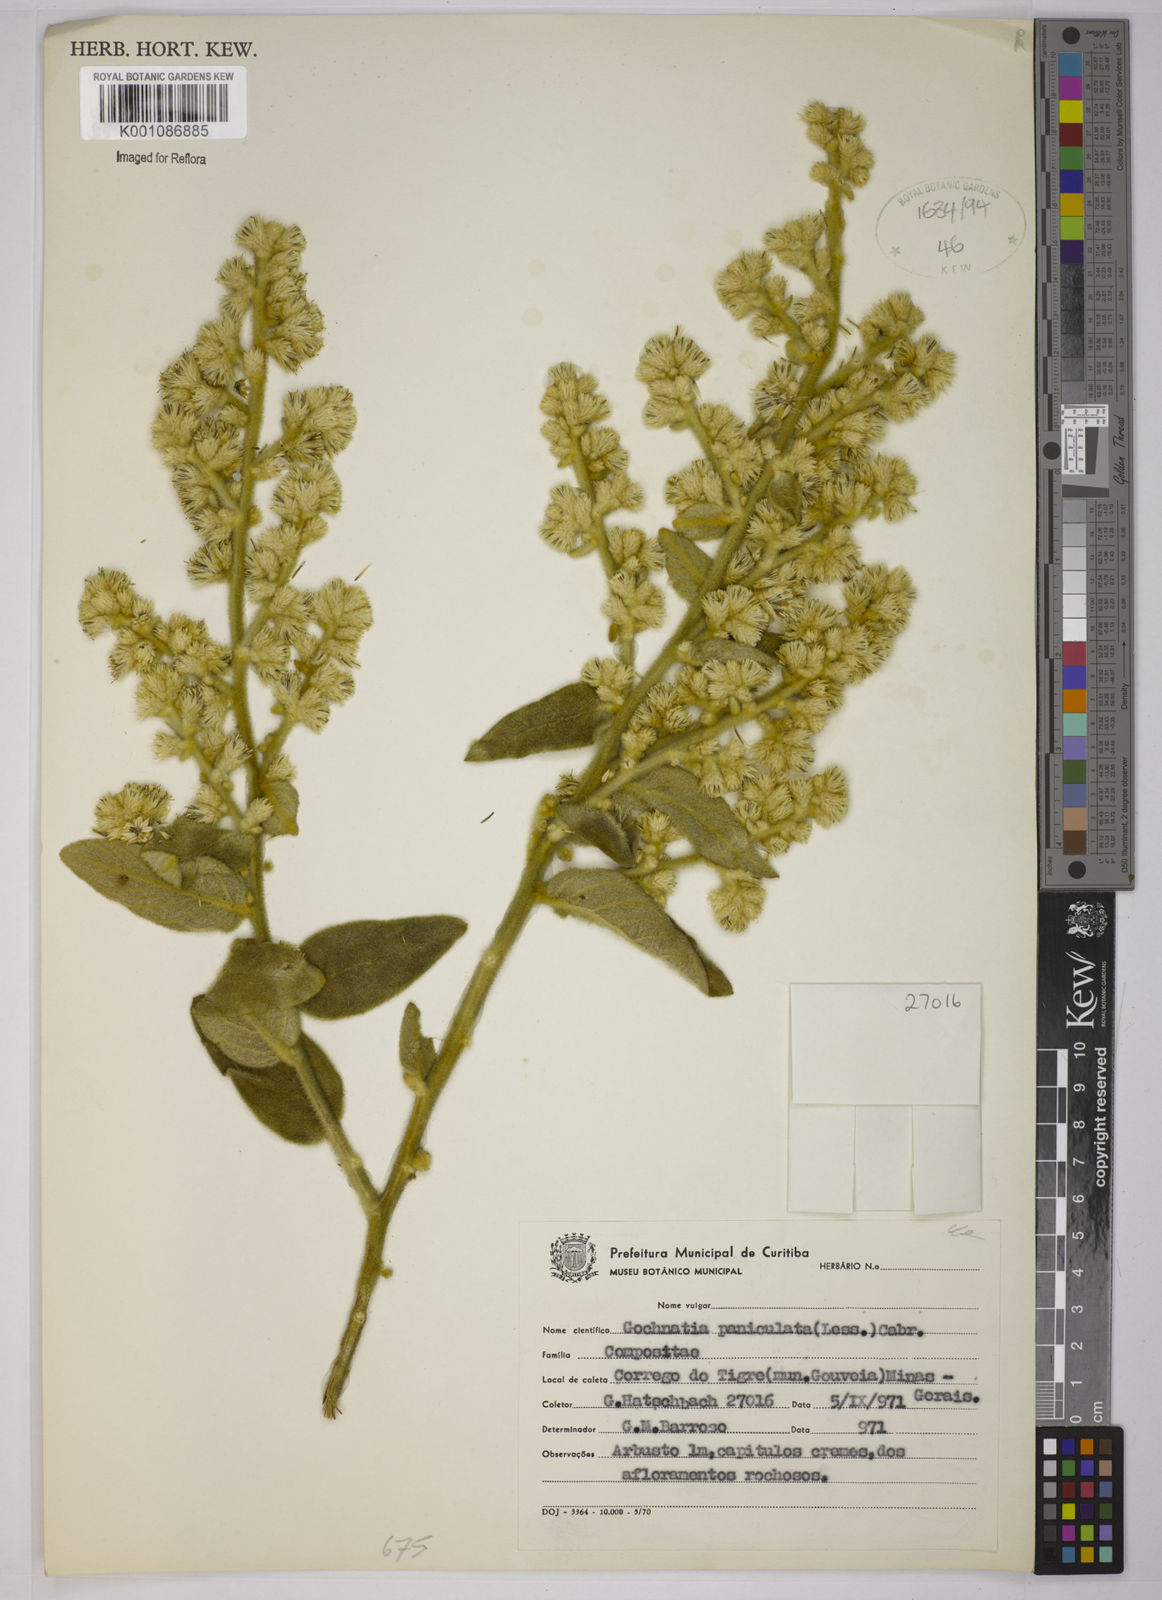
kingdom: Plantae
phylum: Tracheophyta
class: Magnoliopsida
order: Asterales
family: Asteraceae
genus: Moquiniastrum
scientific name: Moquiniastrum paniculatum
